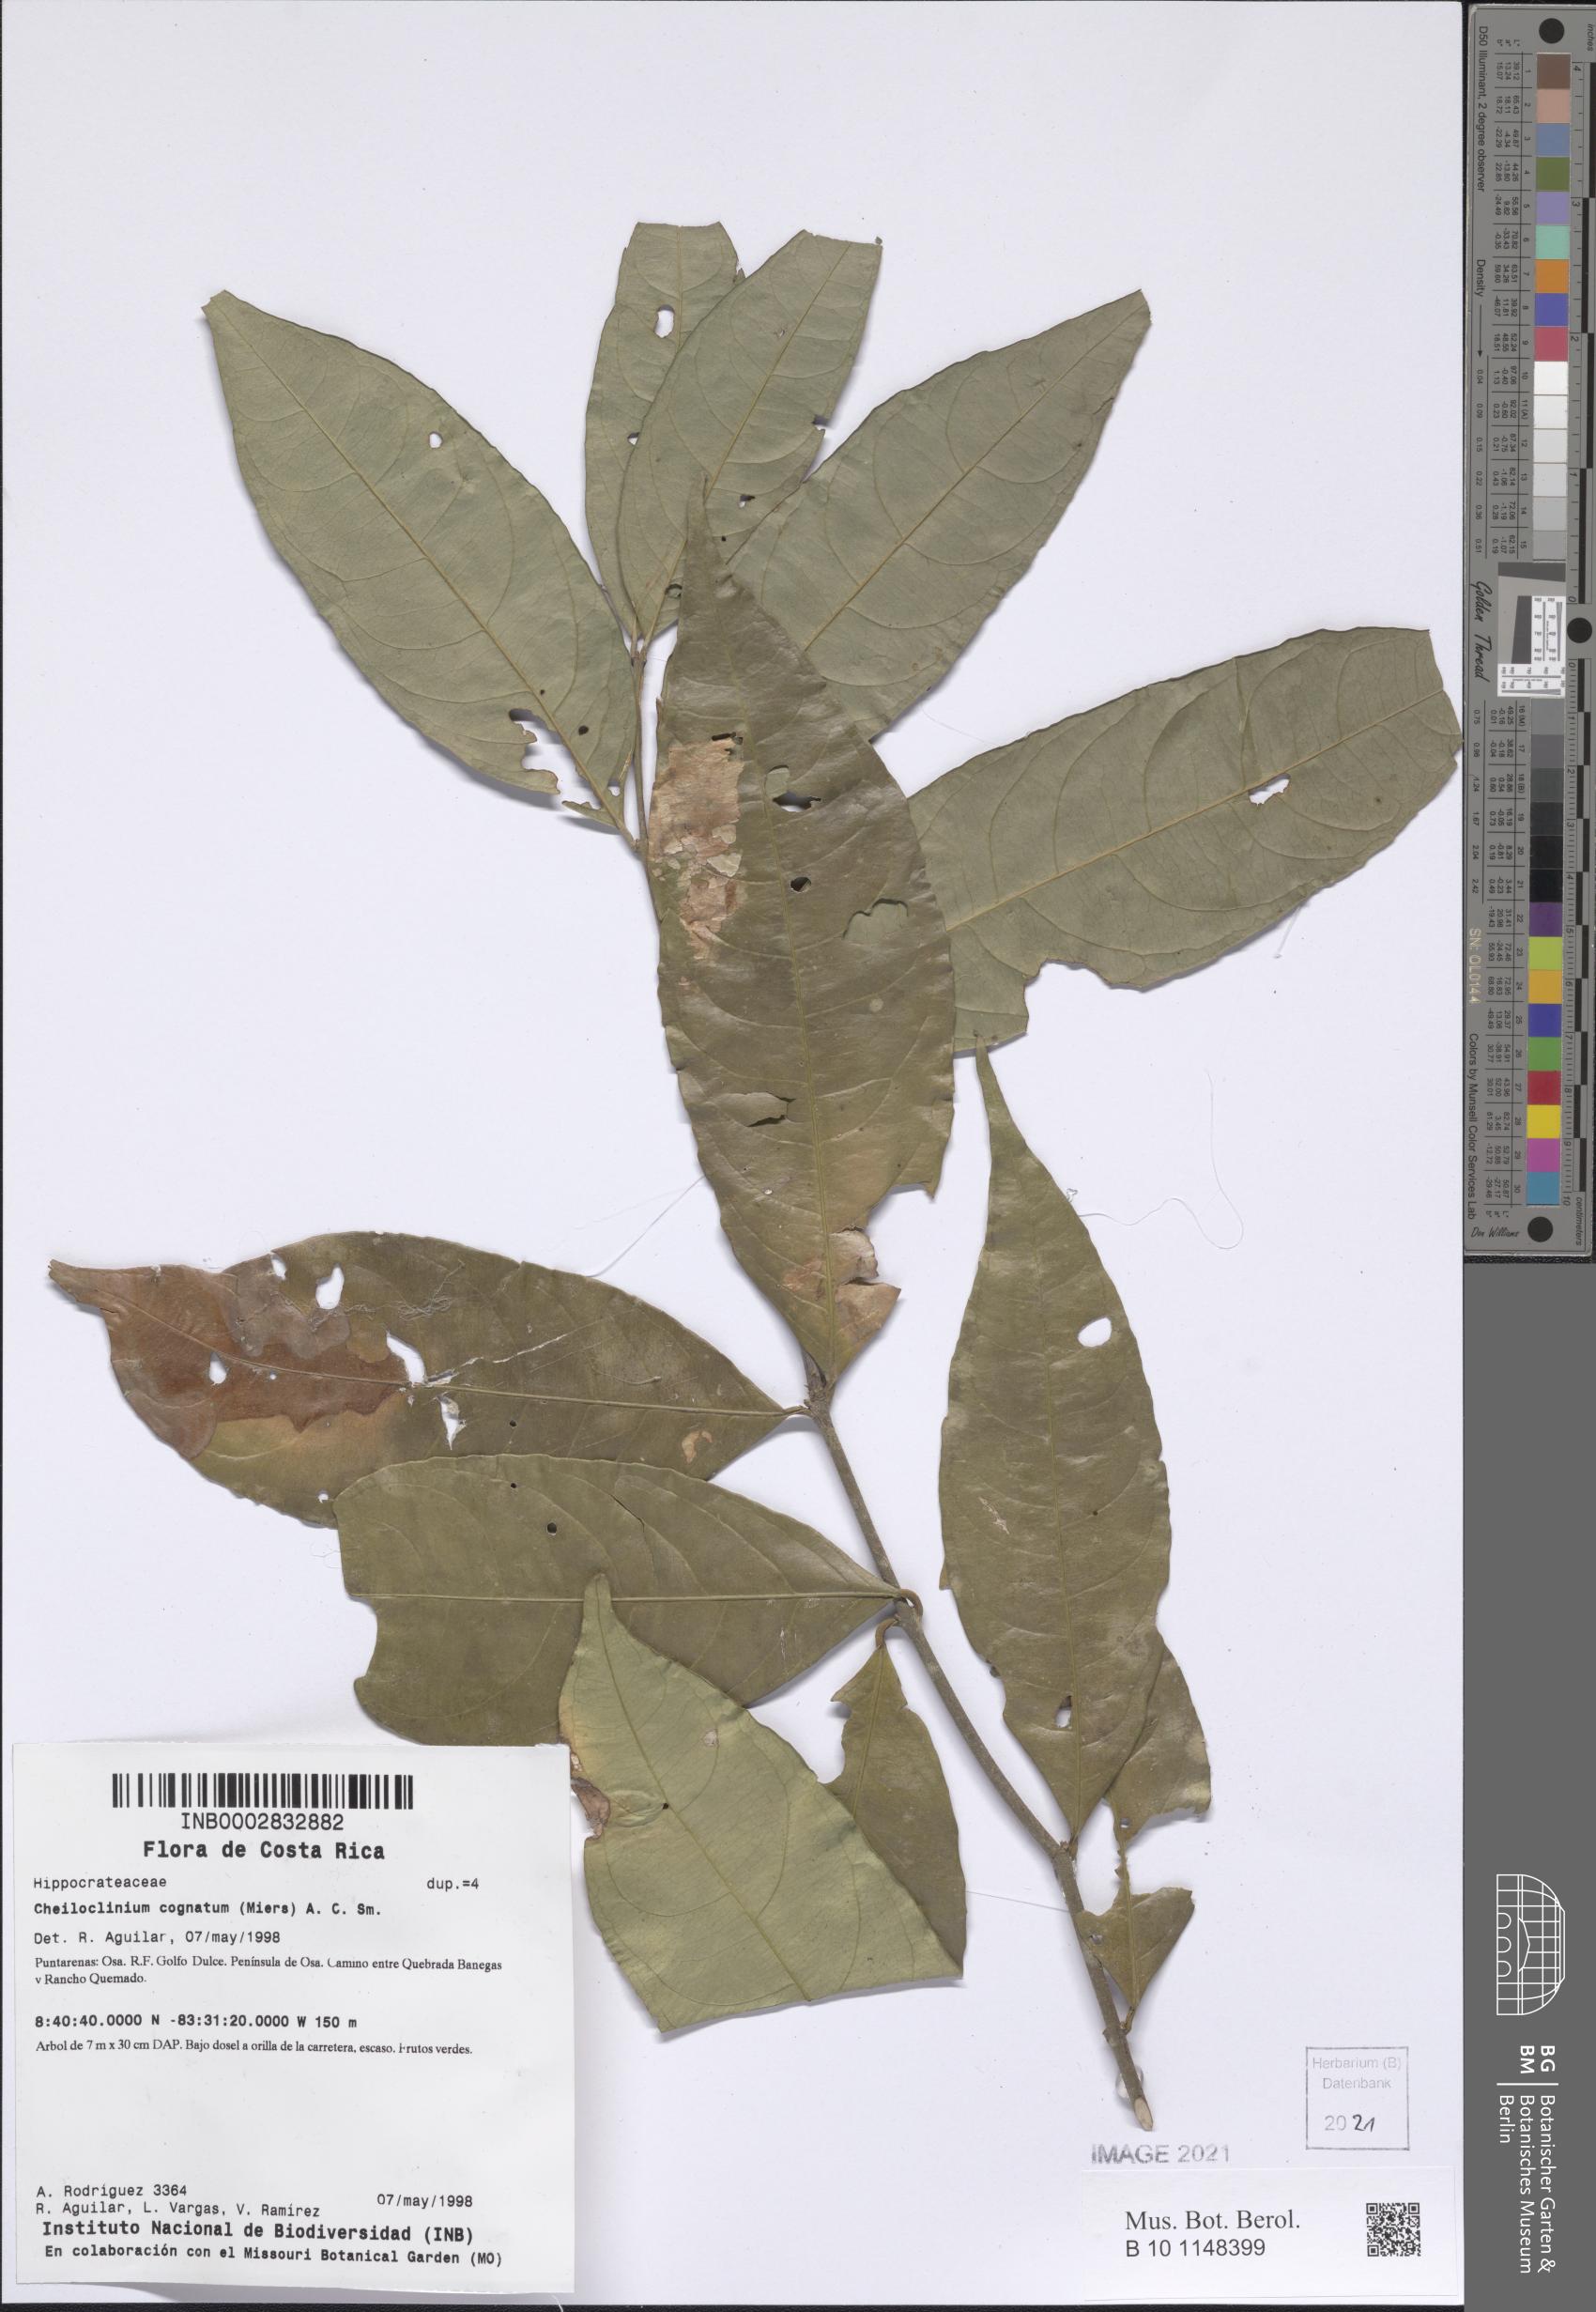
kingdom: Plantae
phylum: Tracheophyta
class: Magnoliopsida
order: Celastrales
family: Celastraceae
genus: Cheiloclinium
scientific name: Cheiloclinium cognatum
